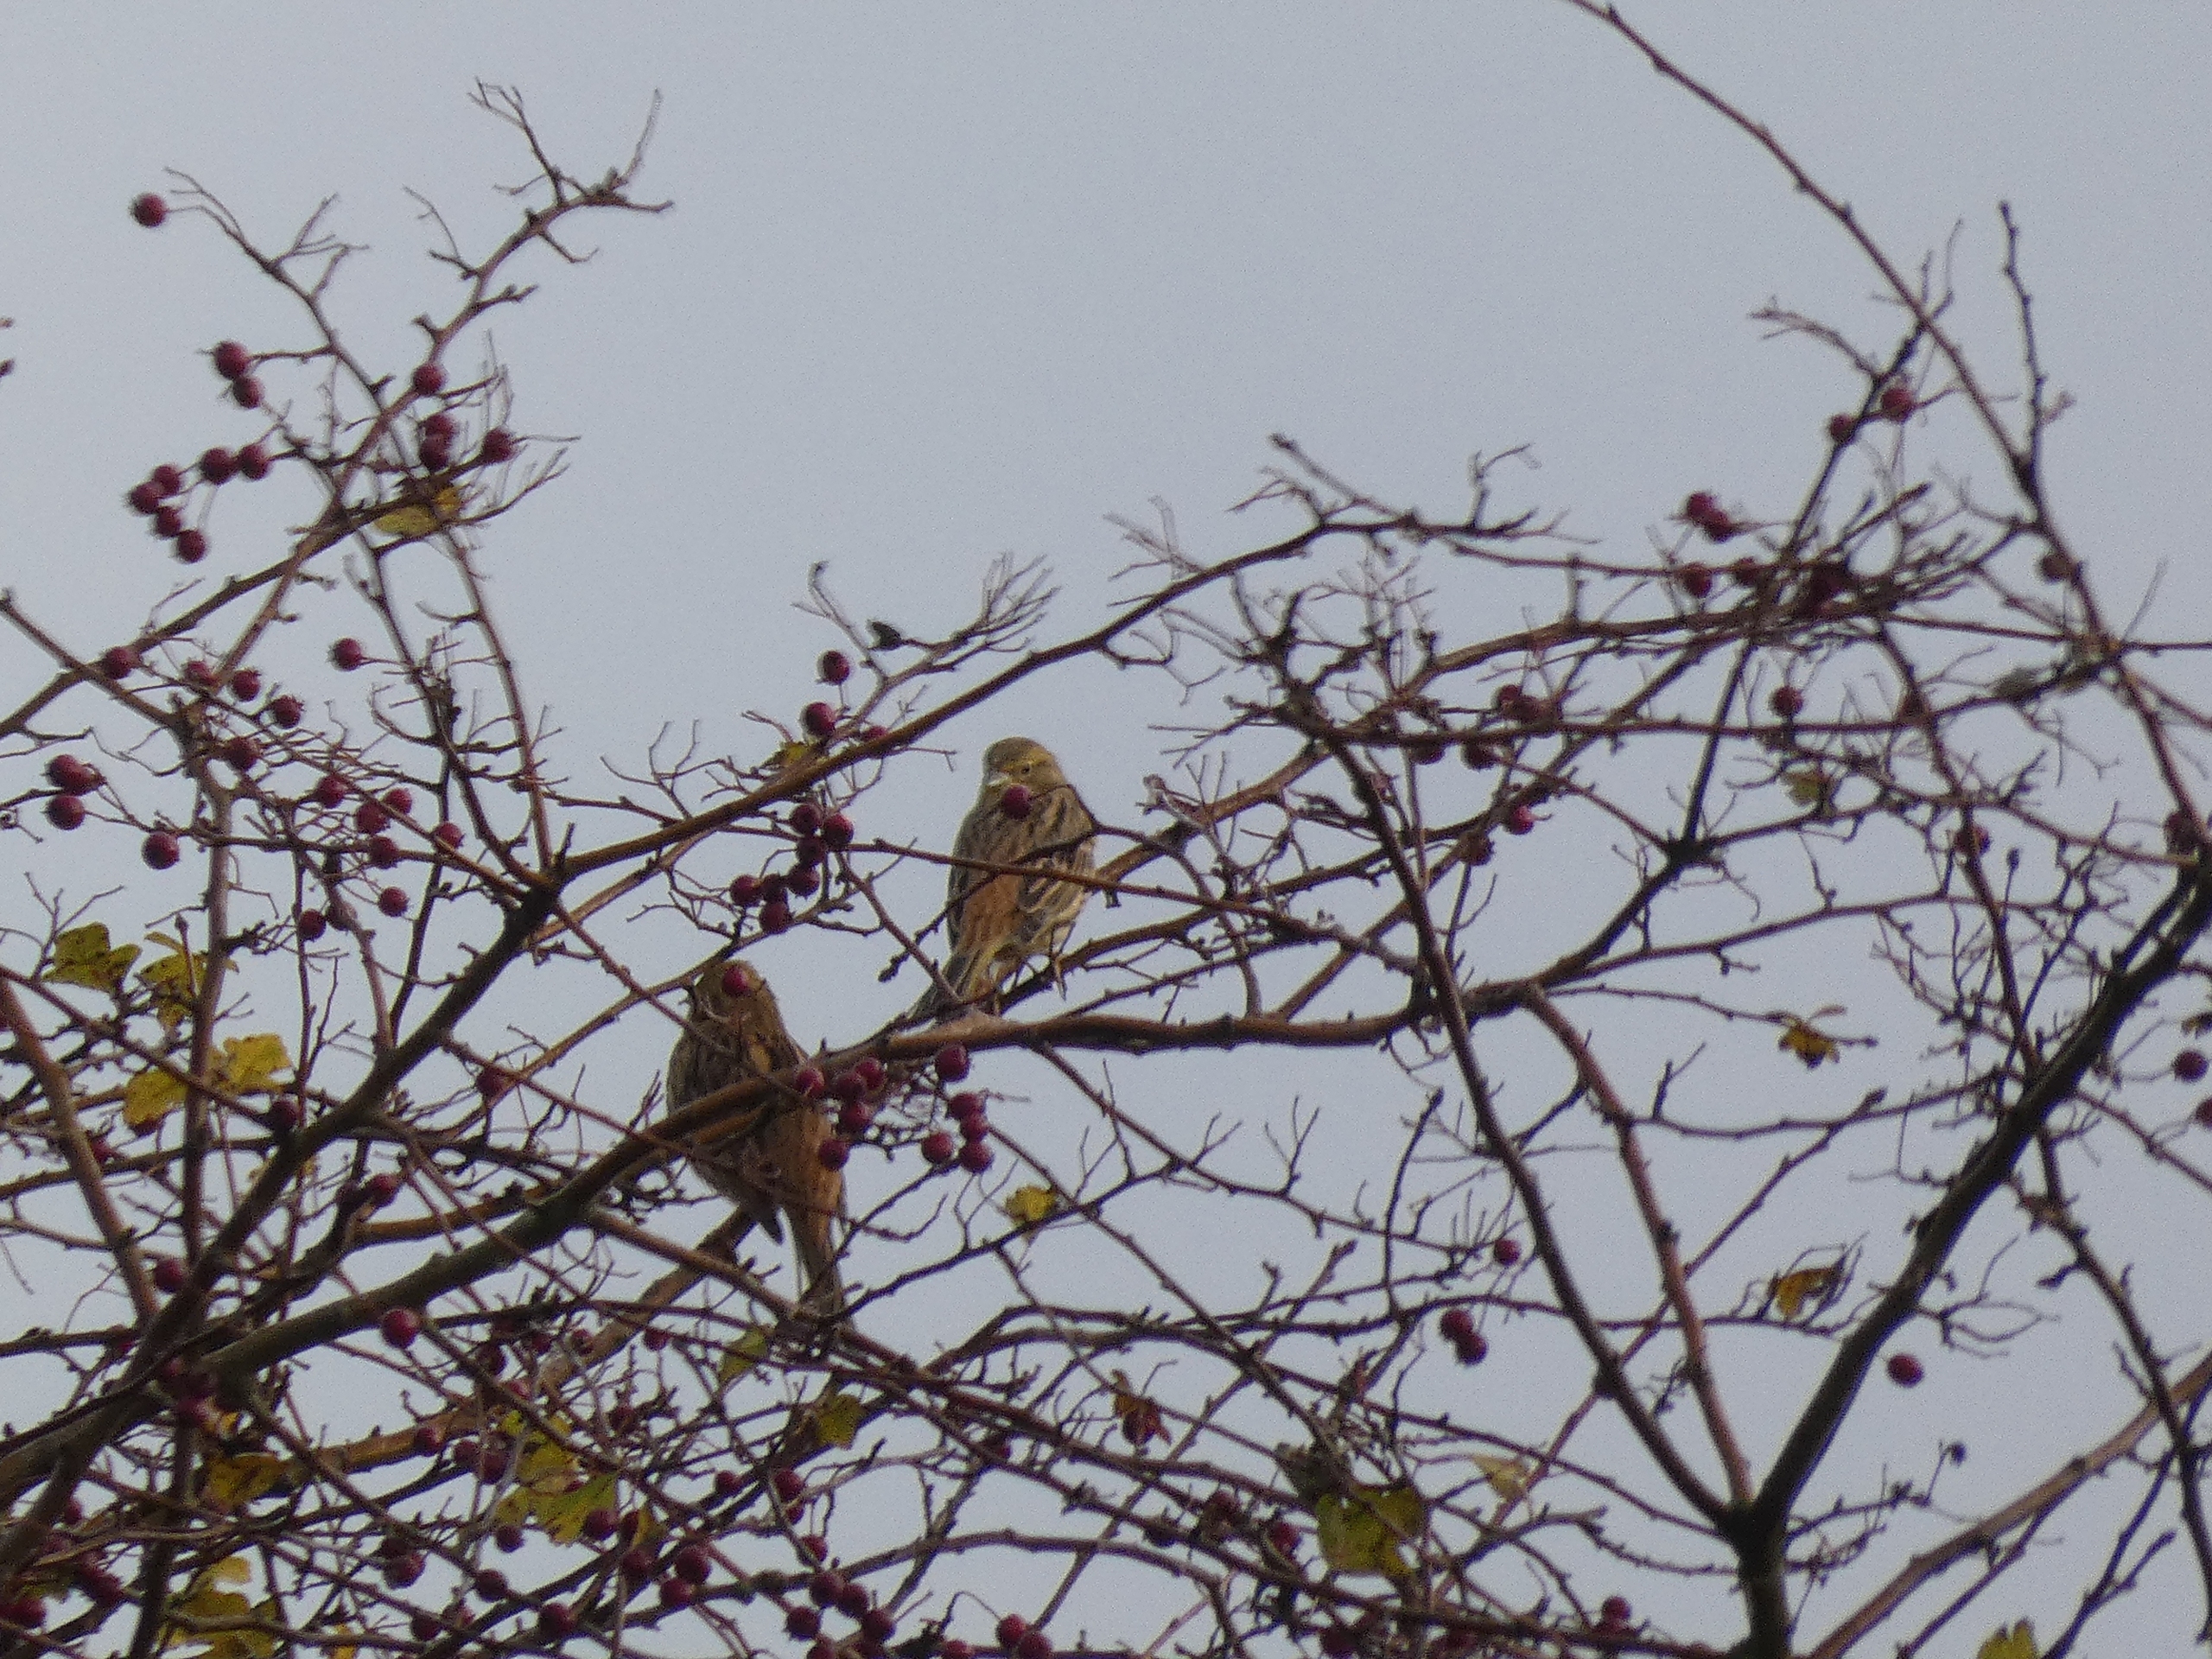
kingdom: Animalia
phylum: Chordata
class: Aves
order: Passeriformes
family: Emberizidae
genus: Emberiza
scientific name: Emberiza citrinella
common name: Gulspurv
